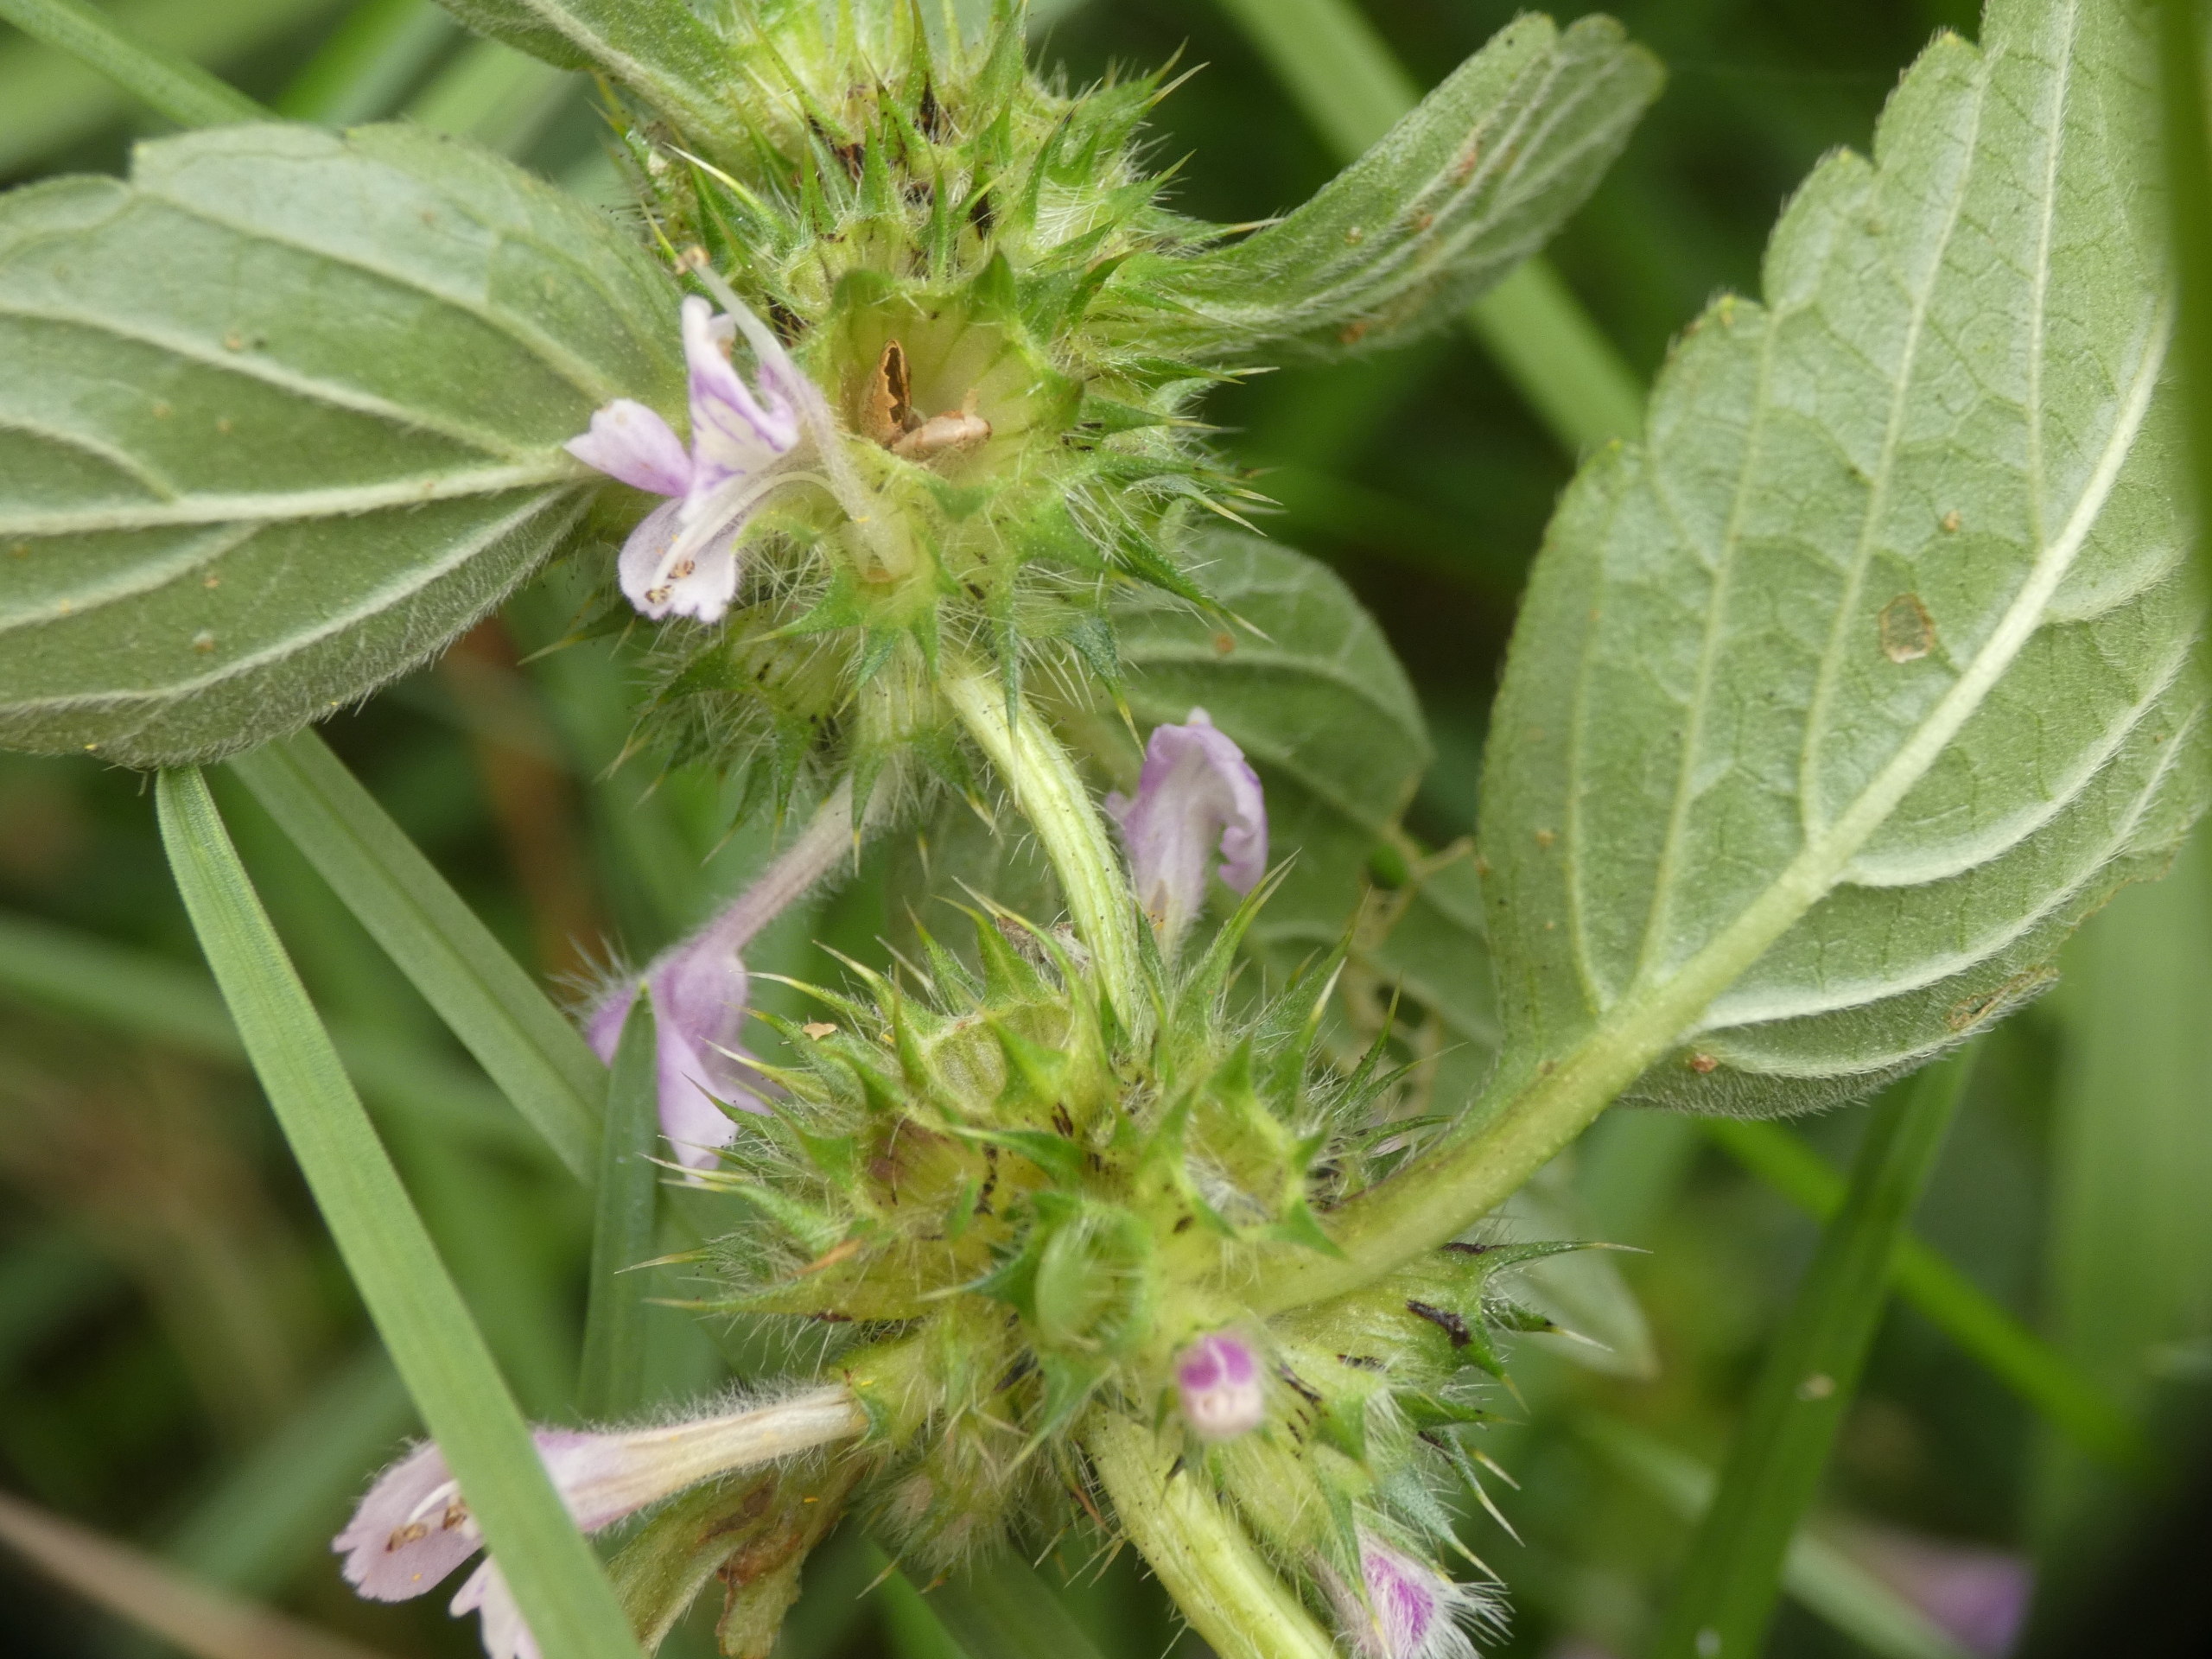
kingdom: Plantae
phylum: Tracheophyta
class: Magnoliopsida
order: Lamiales
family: Lamiaceae
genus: Galeopsis
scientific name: Galeopsis tetrahit
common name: Almindelig hanekro
